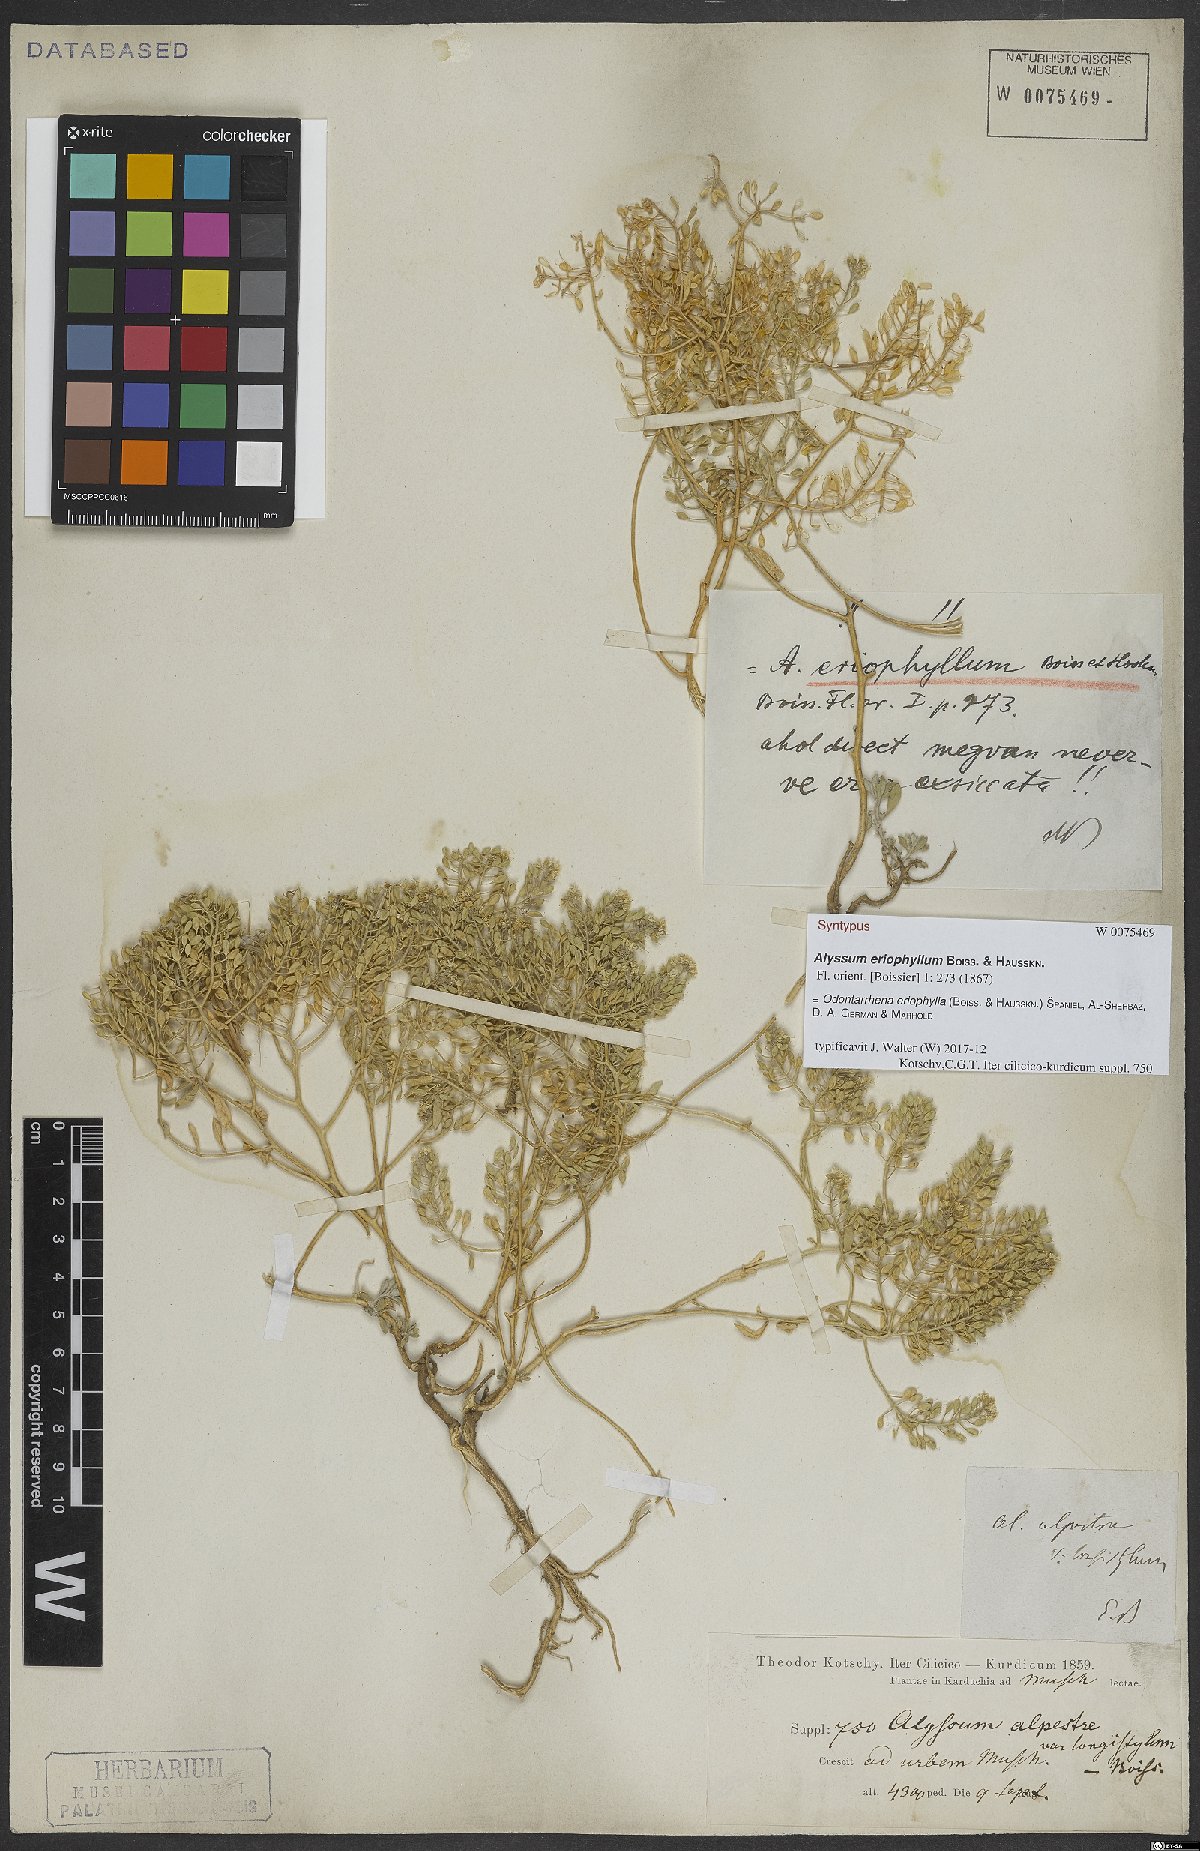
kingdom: Plantae
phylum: Tracheophyta
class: Magnoliopsida
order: Brassicales
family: Brassicaceae
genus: Odontarrhena
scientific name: Odontarrhena eriophylla
